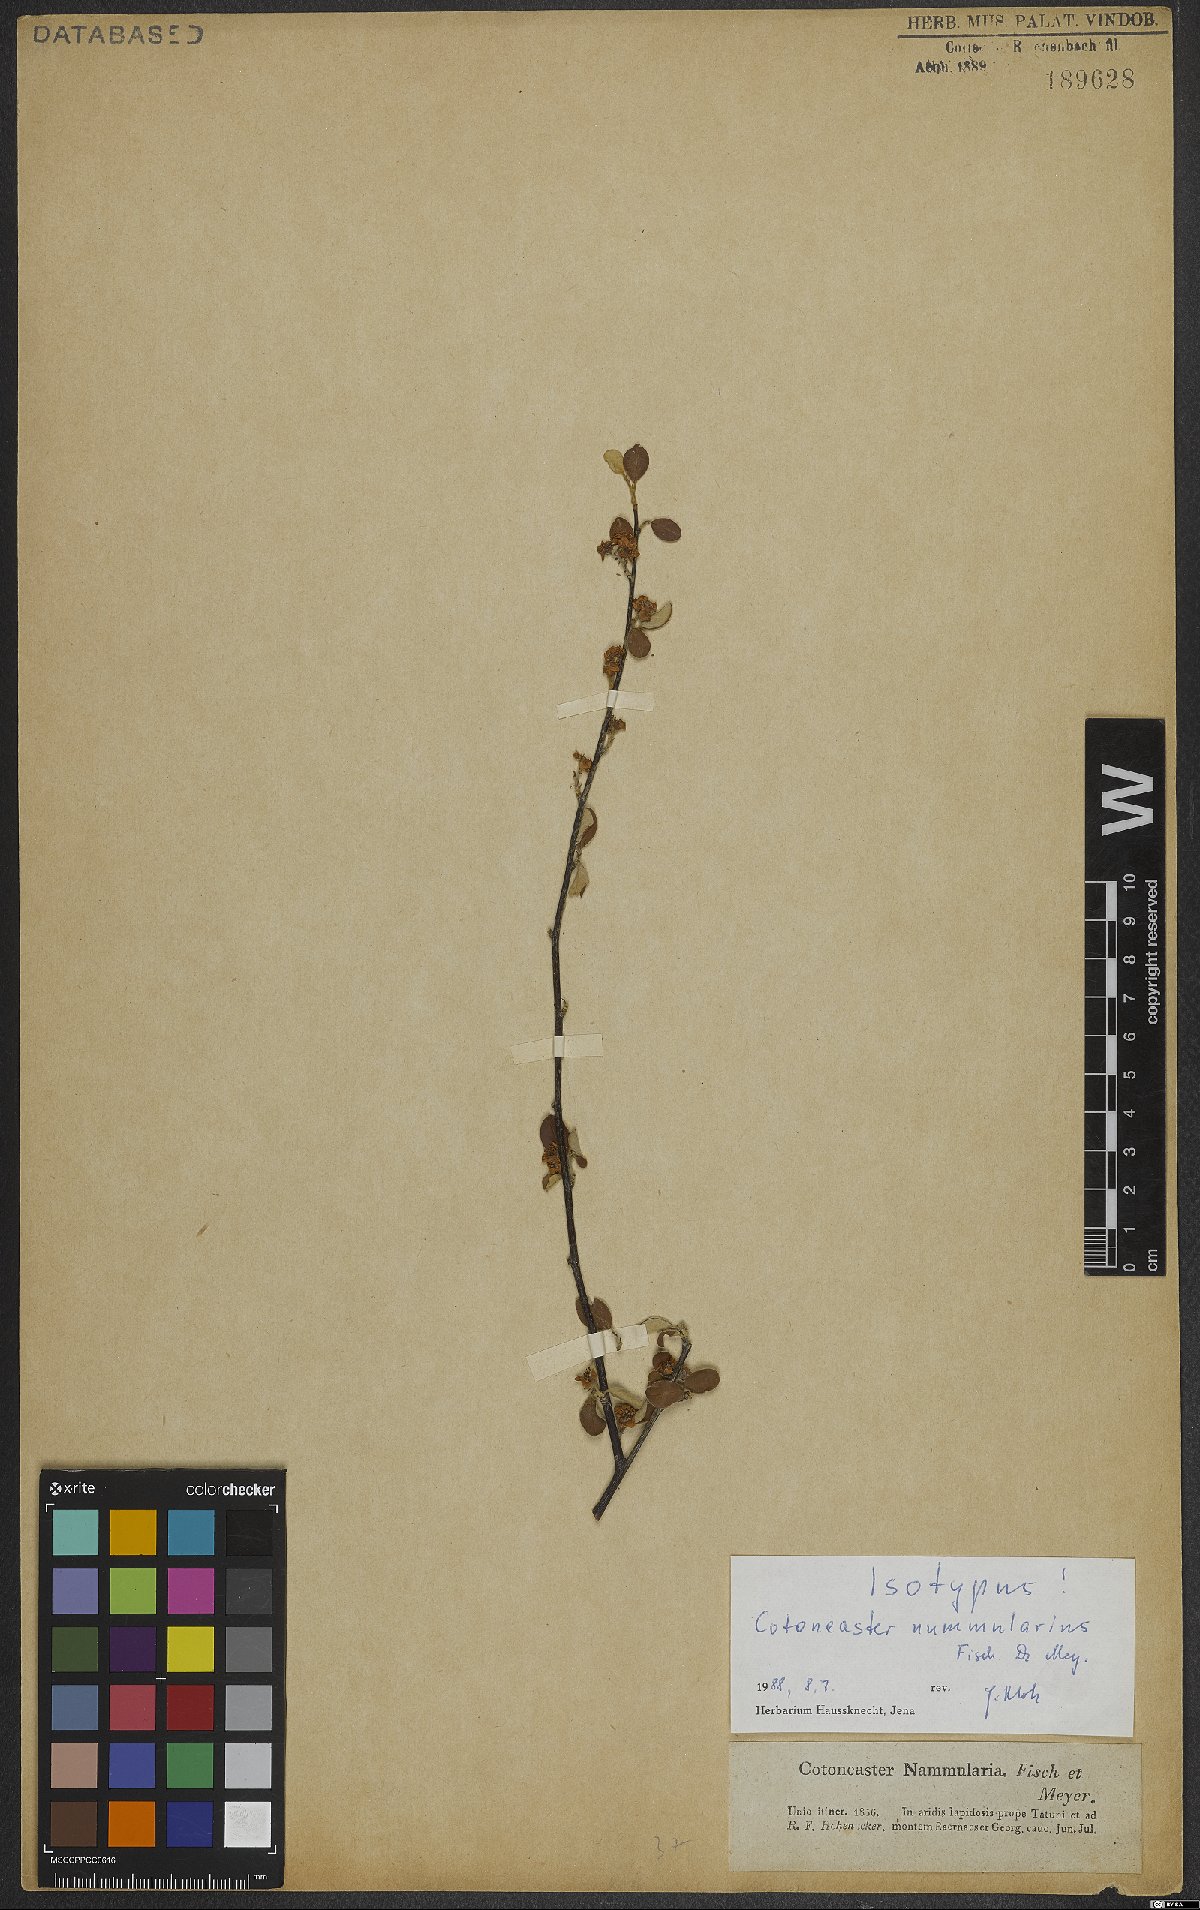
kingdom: Plantae
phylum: Tracheophyta
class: Magnoliopsida
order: Rosales
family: Rosaceae
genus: Cotoneaster
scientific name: Cotoneaster nummularius
